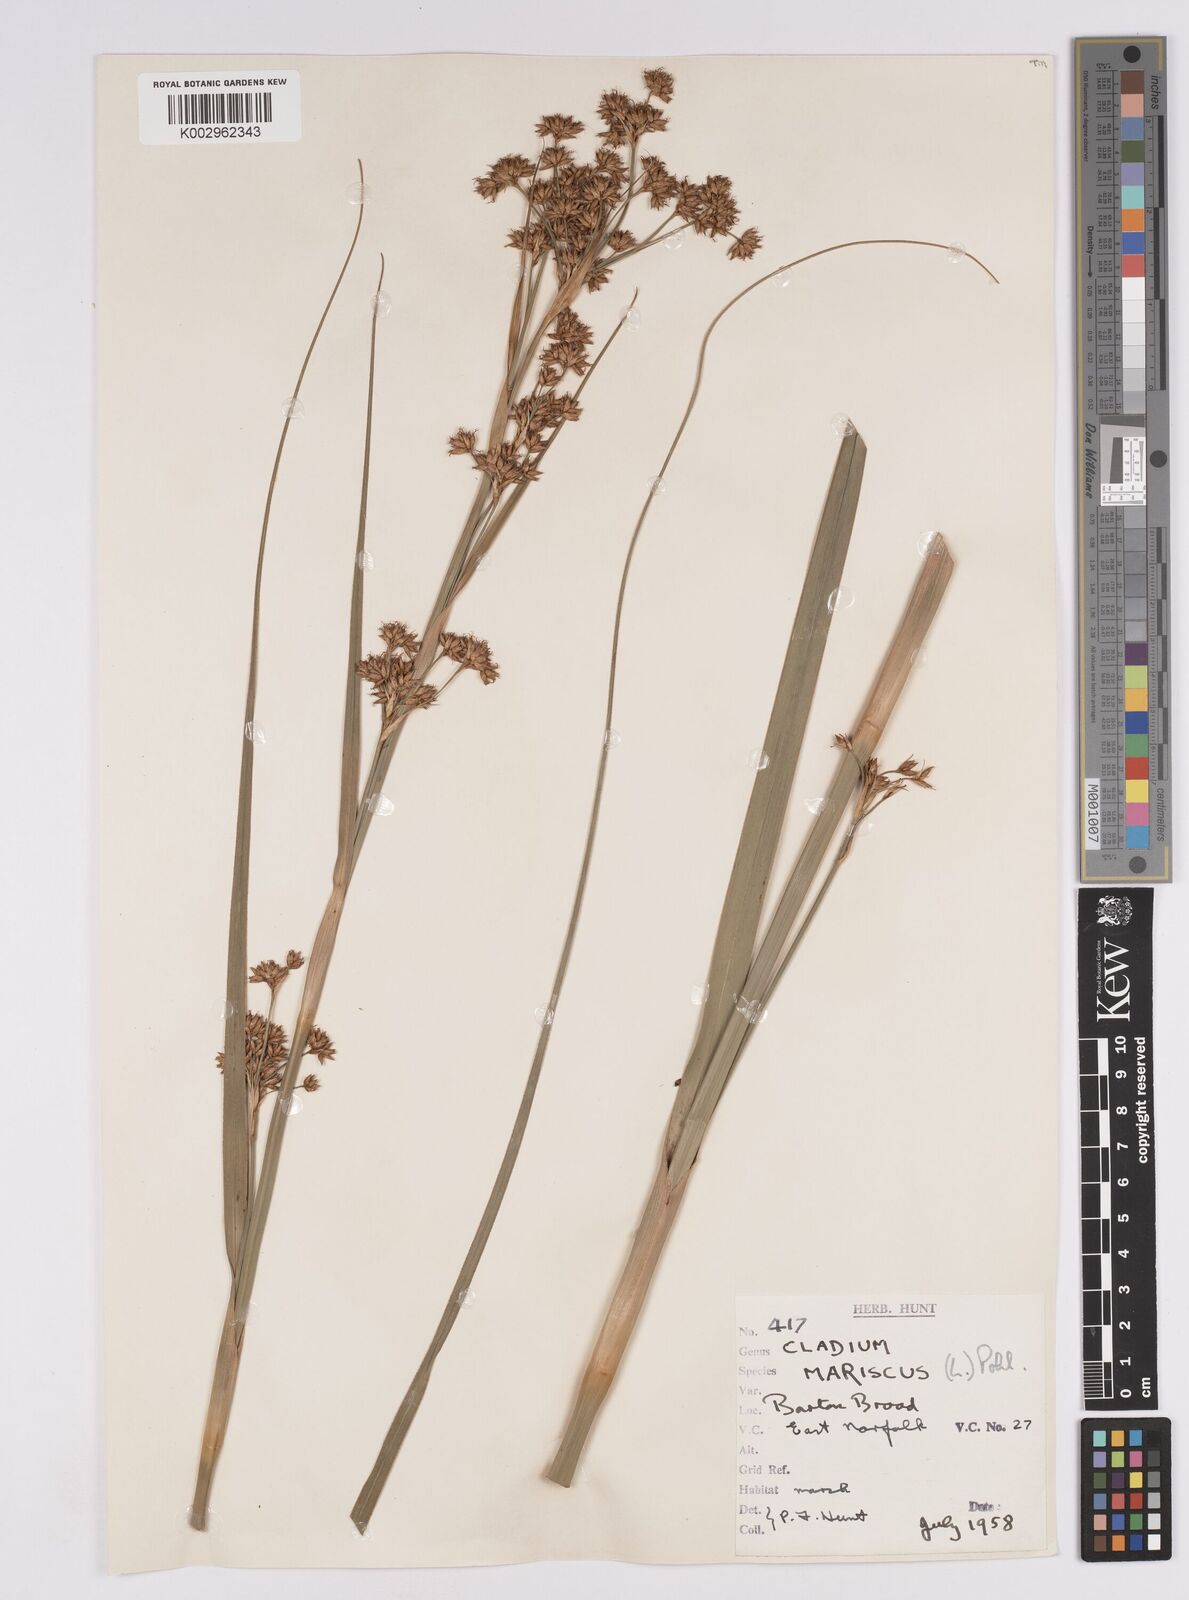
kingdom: Plantae
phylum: Tracheophyta
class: Liliopsida
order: Poales
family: Cyperaceae
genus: Cladium
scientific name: Cladium mariscus
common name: Great fen-sedge
